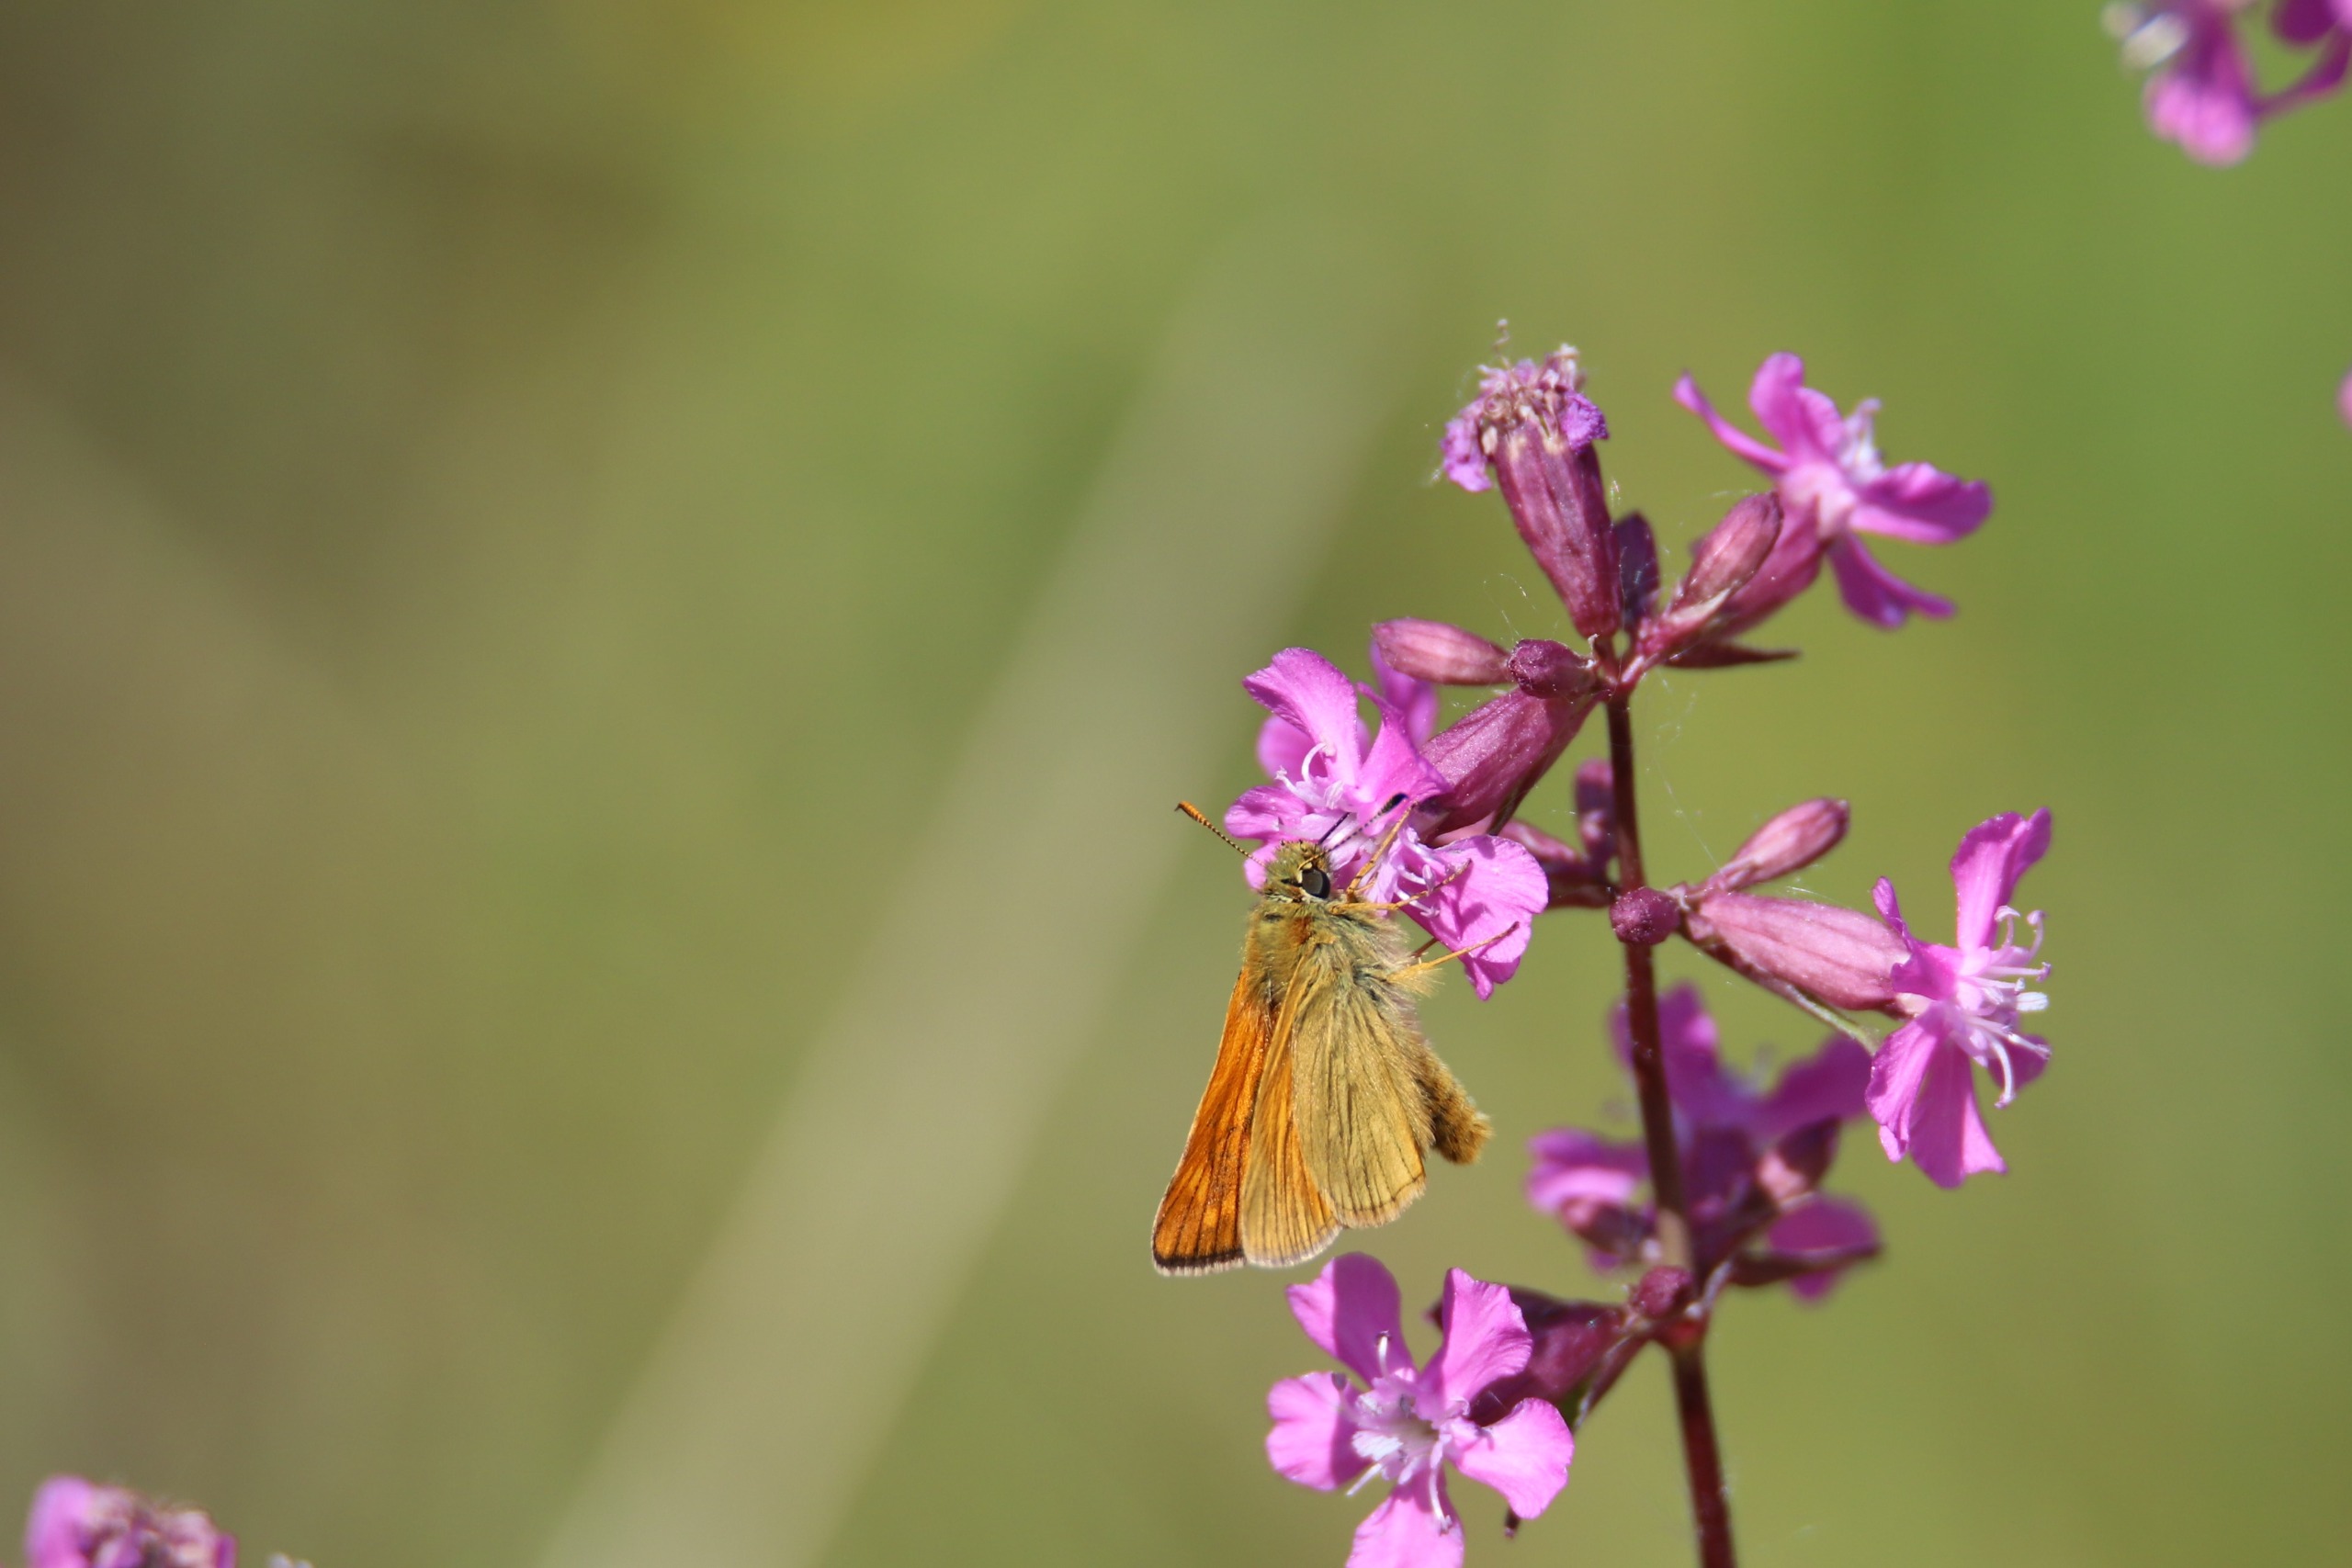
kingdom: Animalia
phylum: Arthropoda
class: Insecta
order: Lepidoptera
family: Hesperiidae
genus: Ochlodes
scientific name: Ochlodes venata
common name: Stor bredpande
